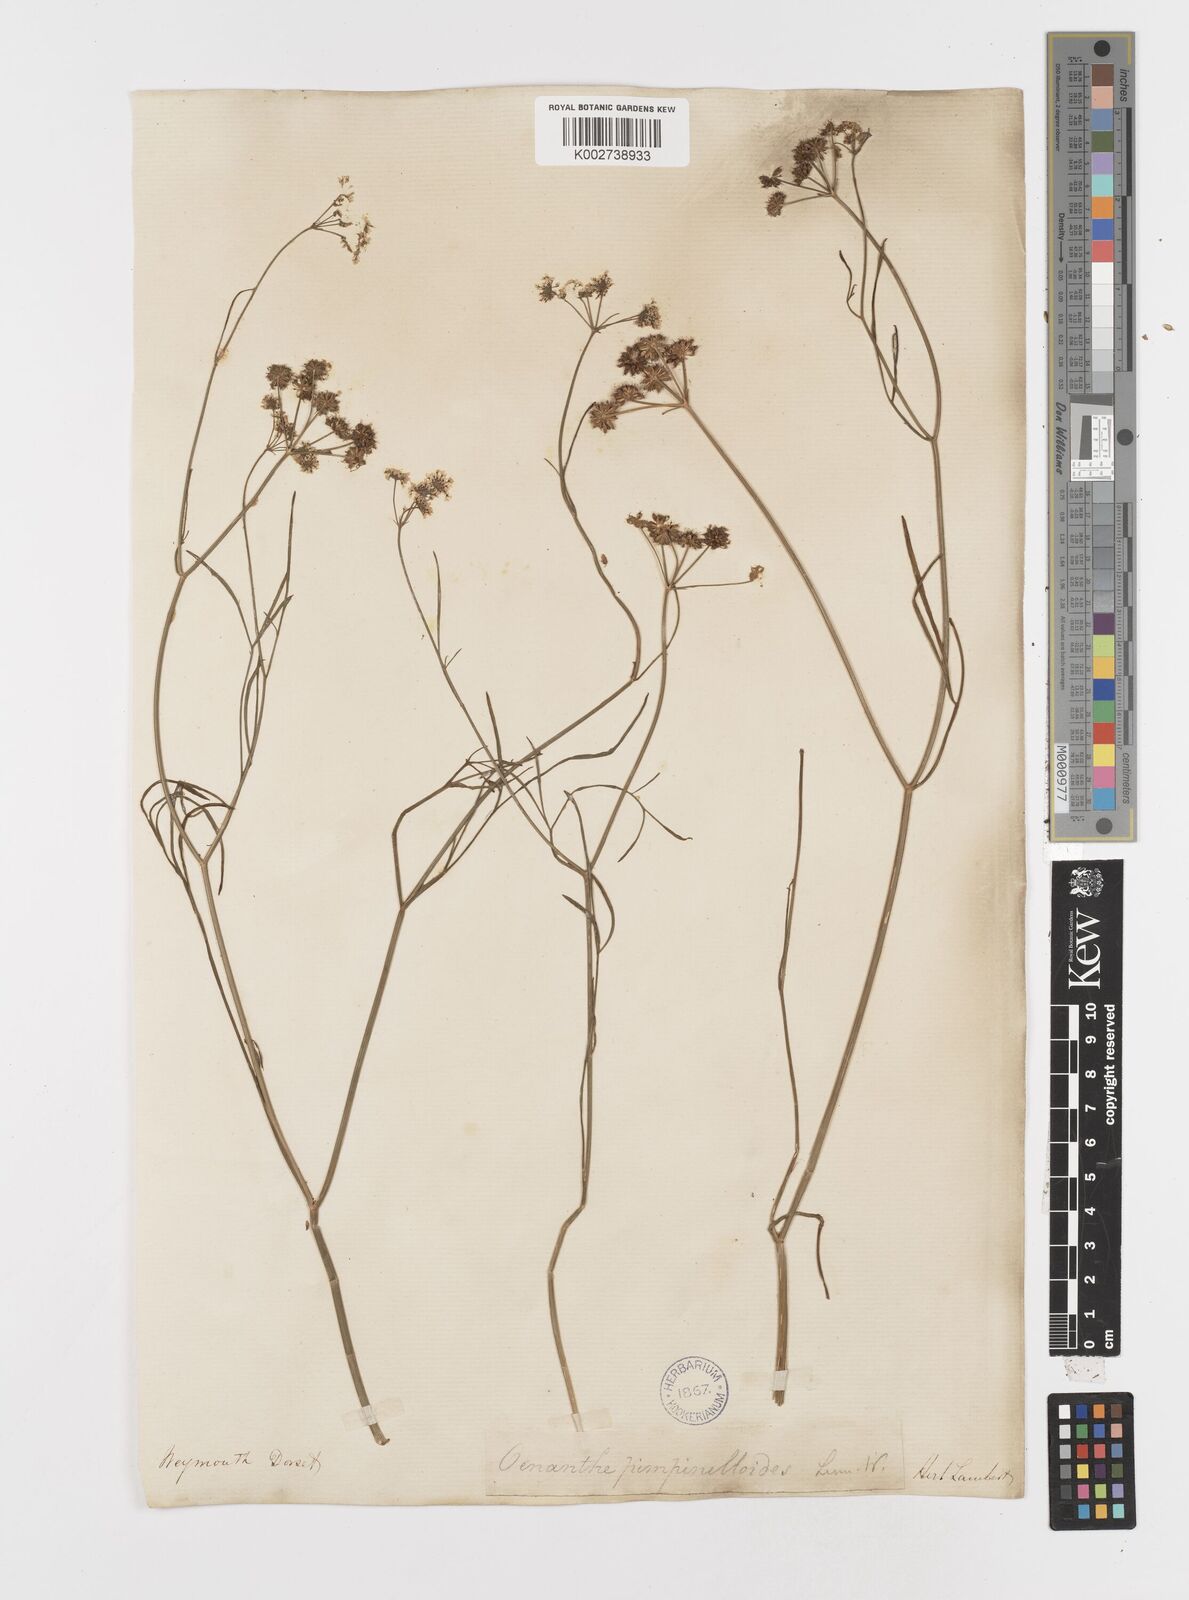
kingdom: Plantae
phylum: Tracheophyta
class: Magnoliopsida
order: Apiales
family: Apiaceae
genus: Oenanthe
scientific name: Oenanthe lachenalii
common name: Parsley water-dropwort
